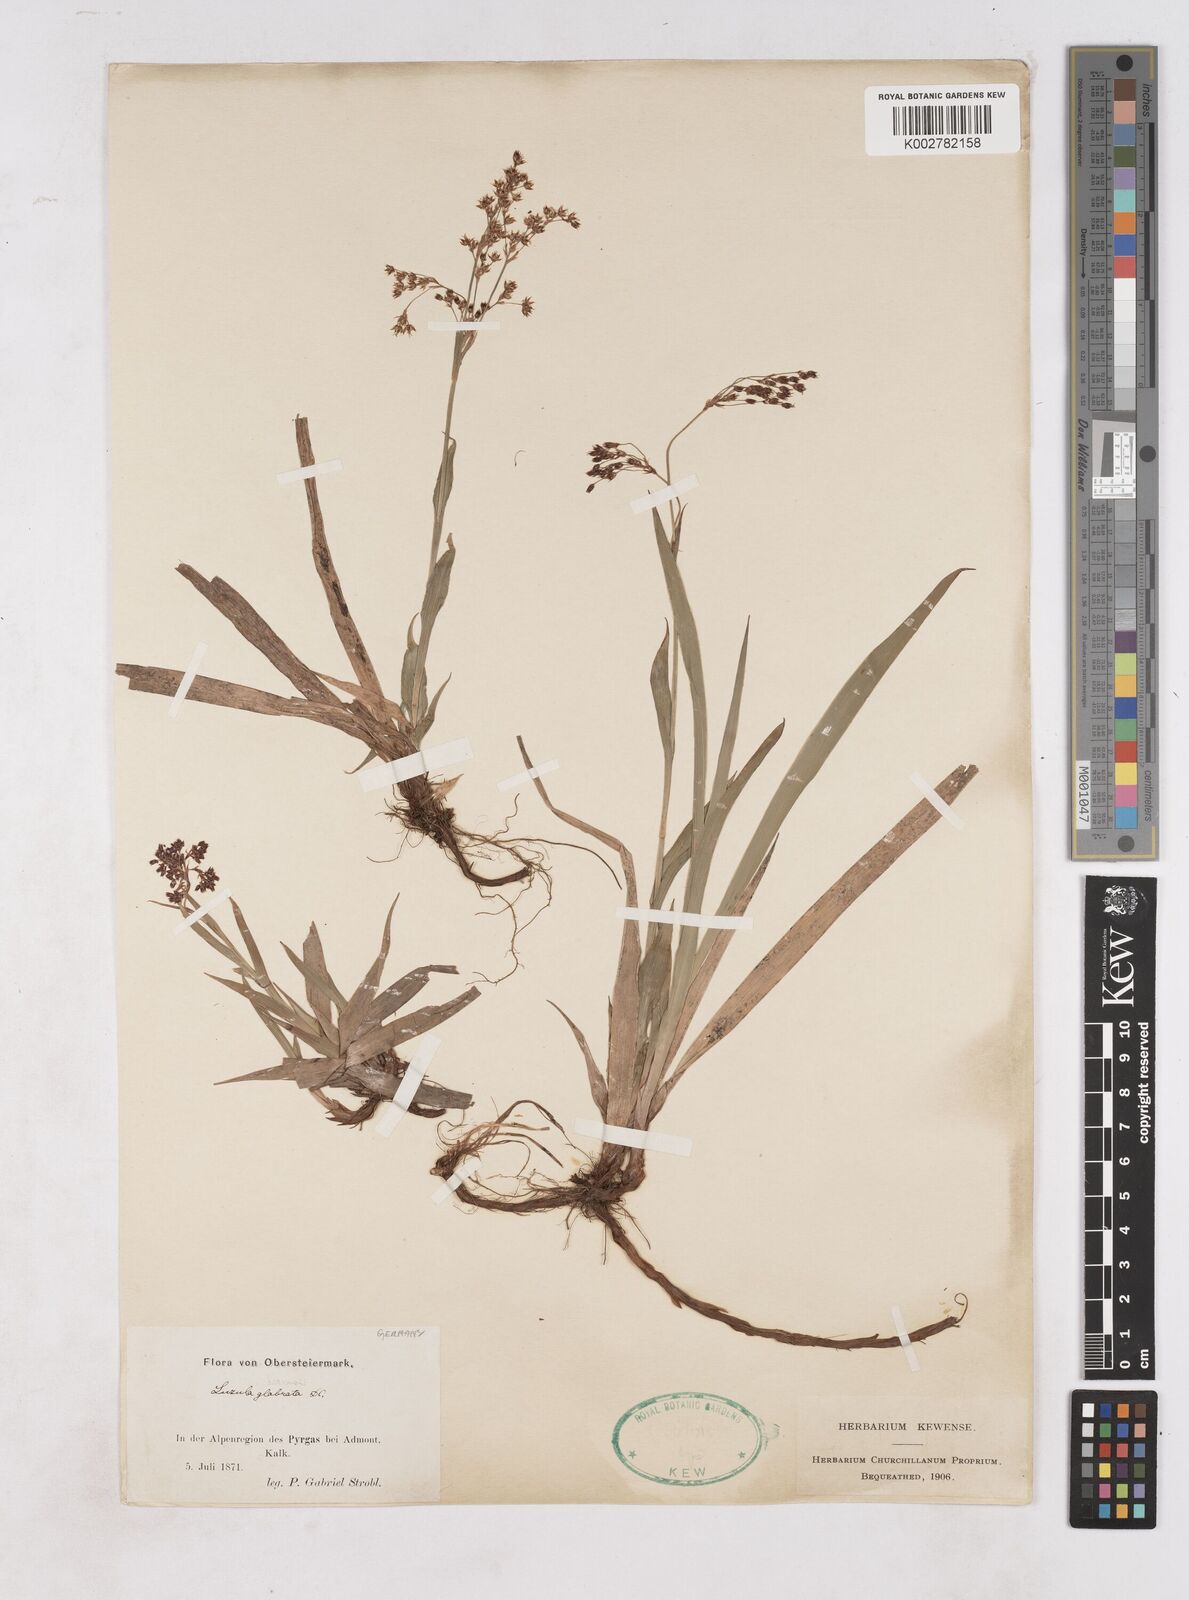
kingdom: Plantae
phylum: Tracheophyta
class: Liliopsida
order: Poales
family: Juncaceae
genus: Luzula
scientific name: Luzula glabrata
